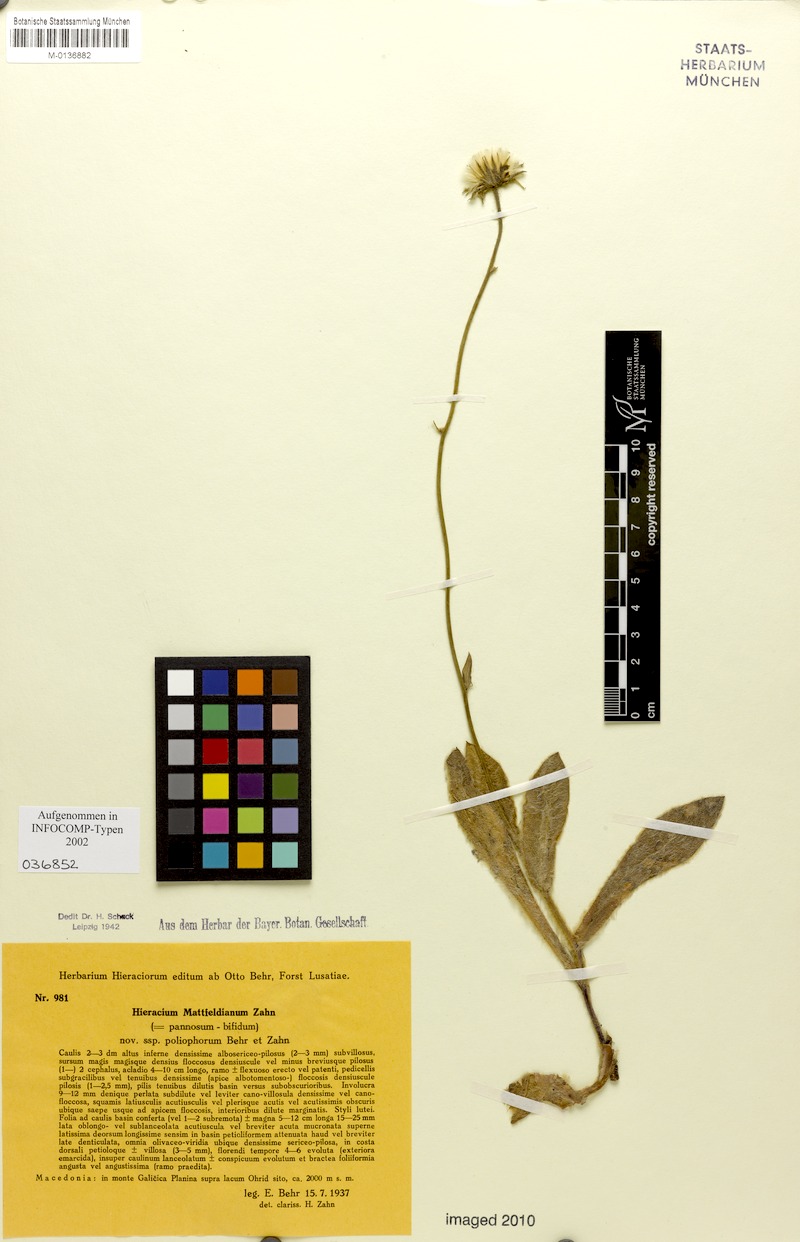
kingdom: Plantae
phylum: Tracheophyta
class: Magnoliopsida
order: Asterales
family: Asteraceae
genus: Hieracium
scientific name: Hieracium mattfeldianum
